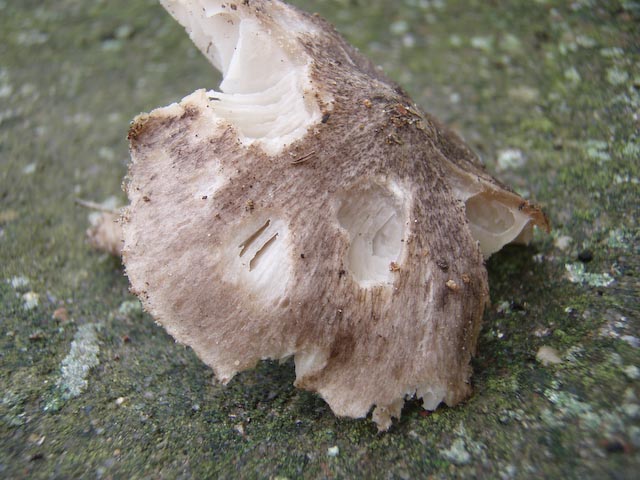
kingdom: Fungi
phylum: Basidiomycota
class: Agaricomycetes
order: Agaricales
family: Tricholomataceae
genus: Tricholoma
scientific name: Tricholoma terreum
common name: jordfarvet ridderhat
